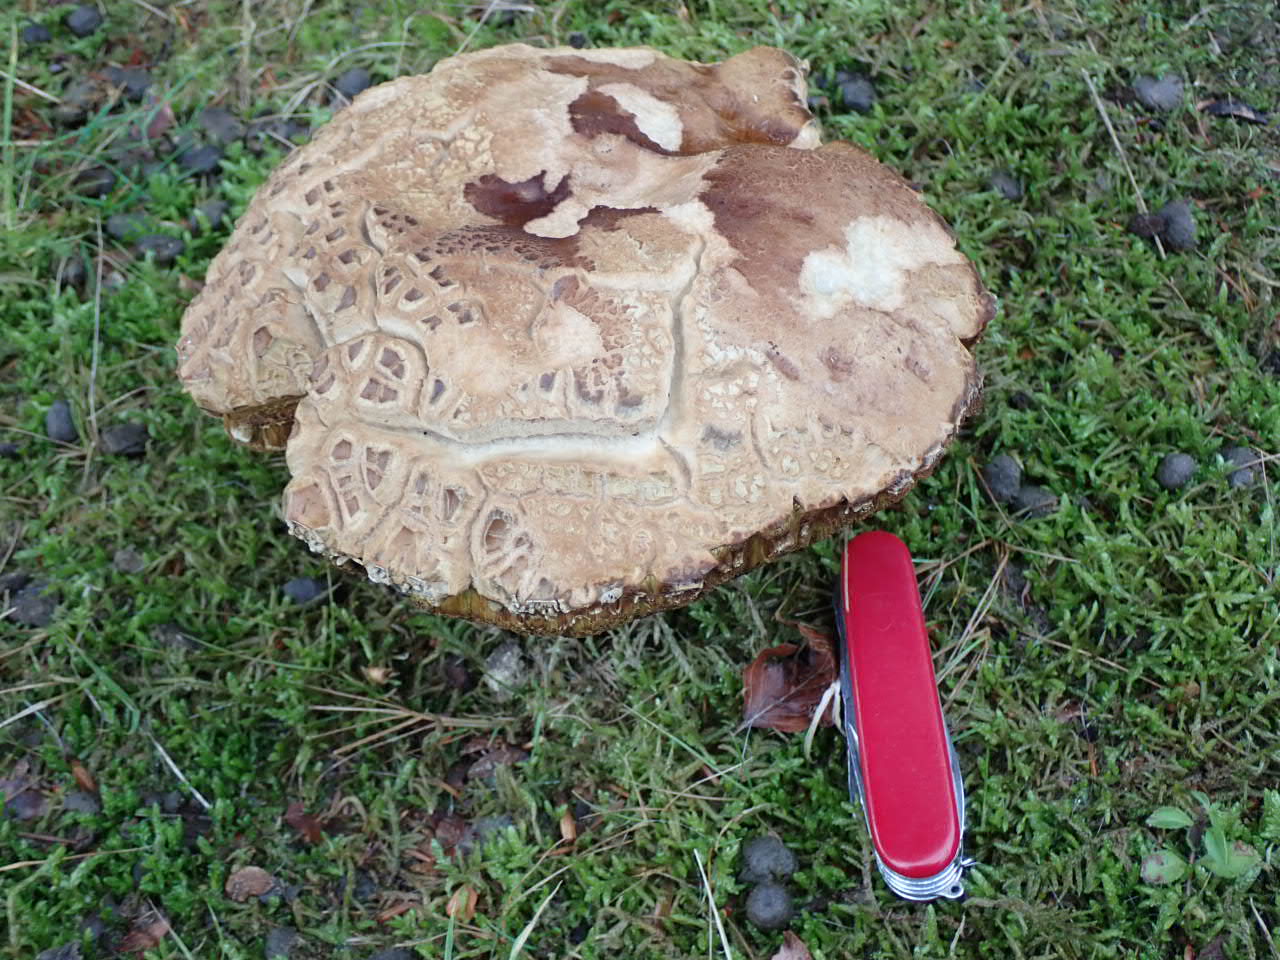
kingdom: Fungi
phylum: Basidiomycota
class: Agaricomycetes
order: Boletales
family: Boletaceae
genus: Boletus
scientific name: Boletus reticulatus
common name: sommer-rørhat
